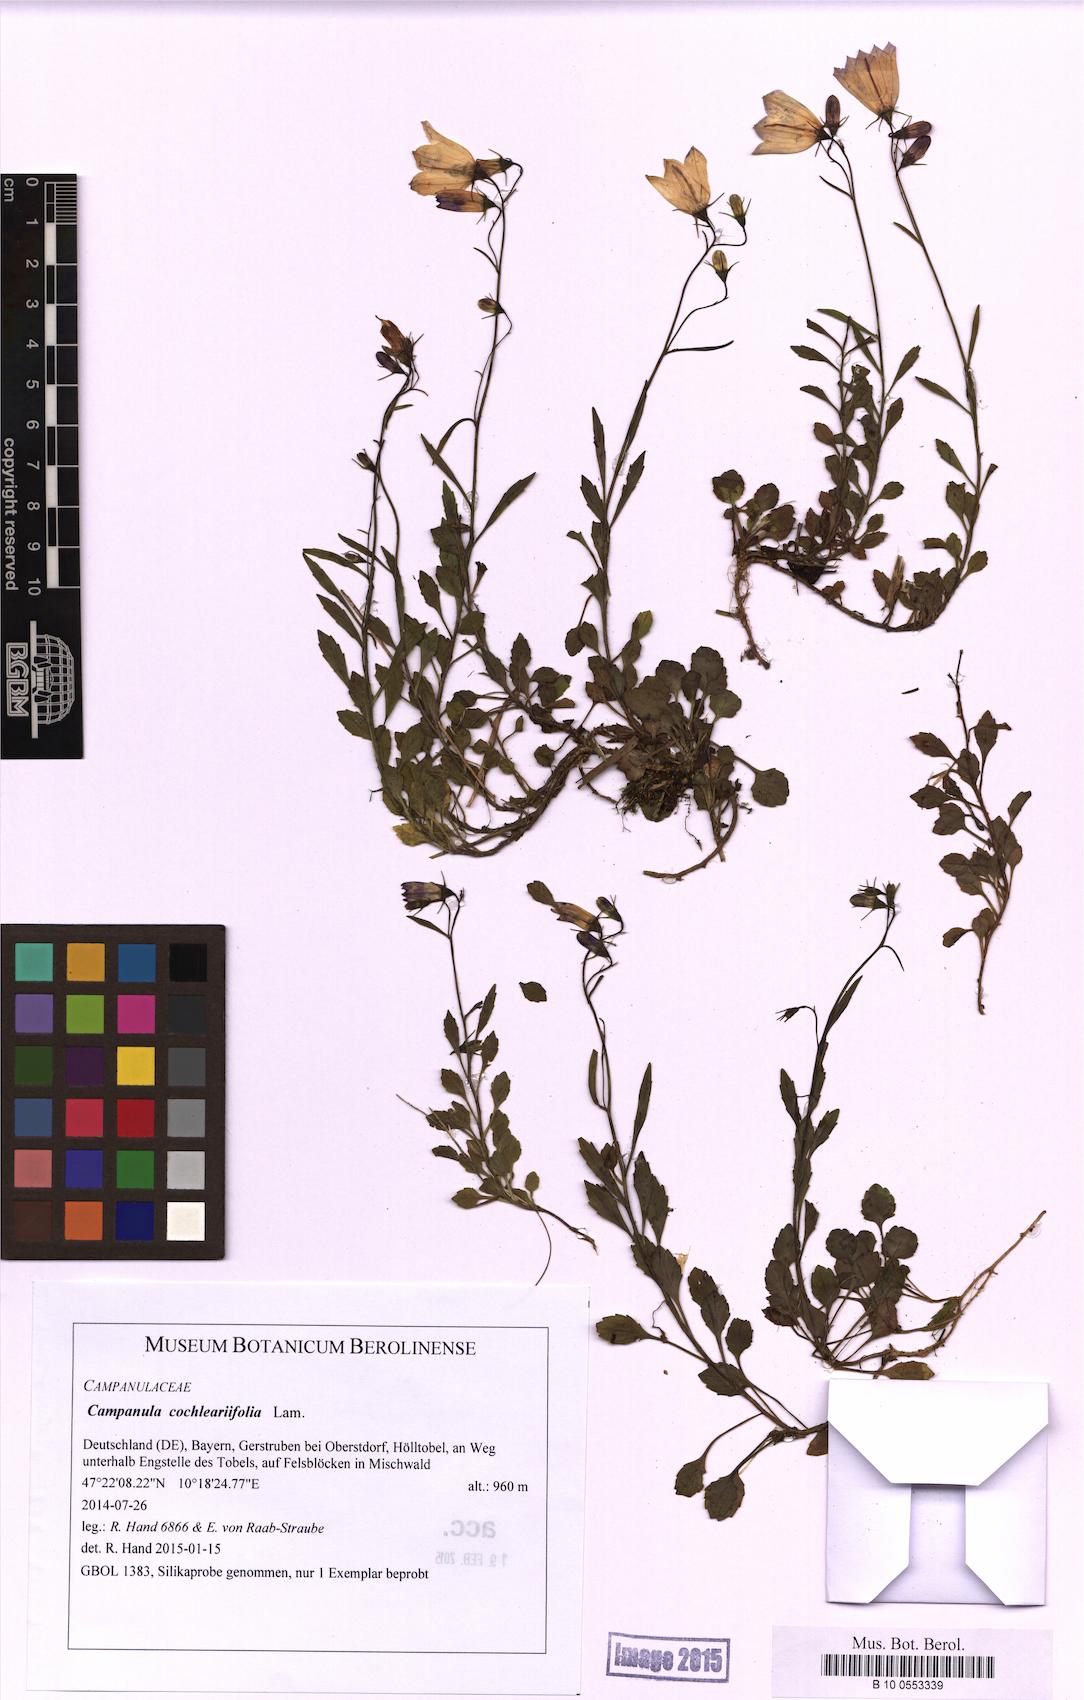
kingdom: Plantae
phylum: Tracheophyta
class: Magnoliopsida
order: Asterales
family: Campanulaceae
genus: Campanula
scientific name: Campanula cochleariifolia
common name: Fairies'-thimbles
